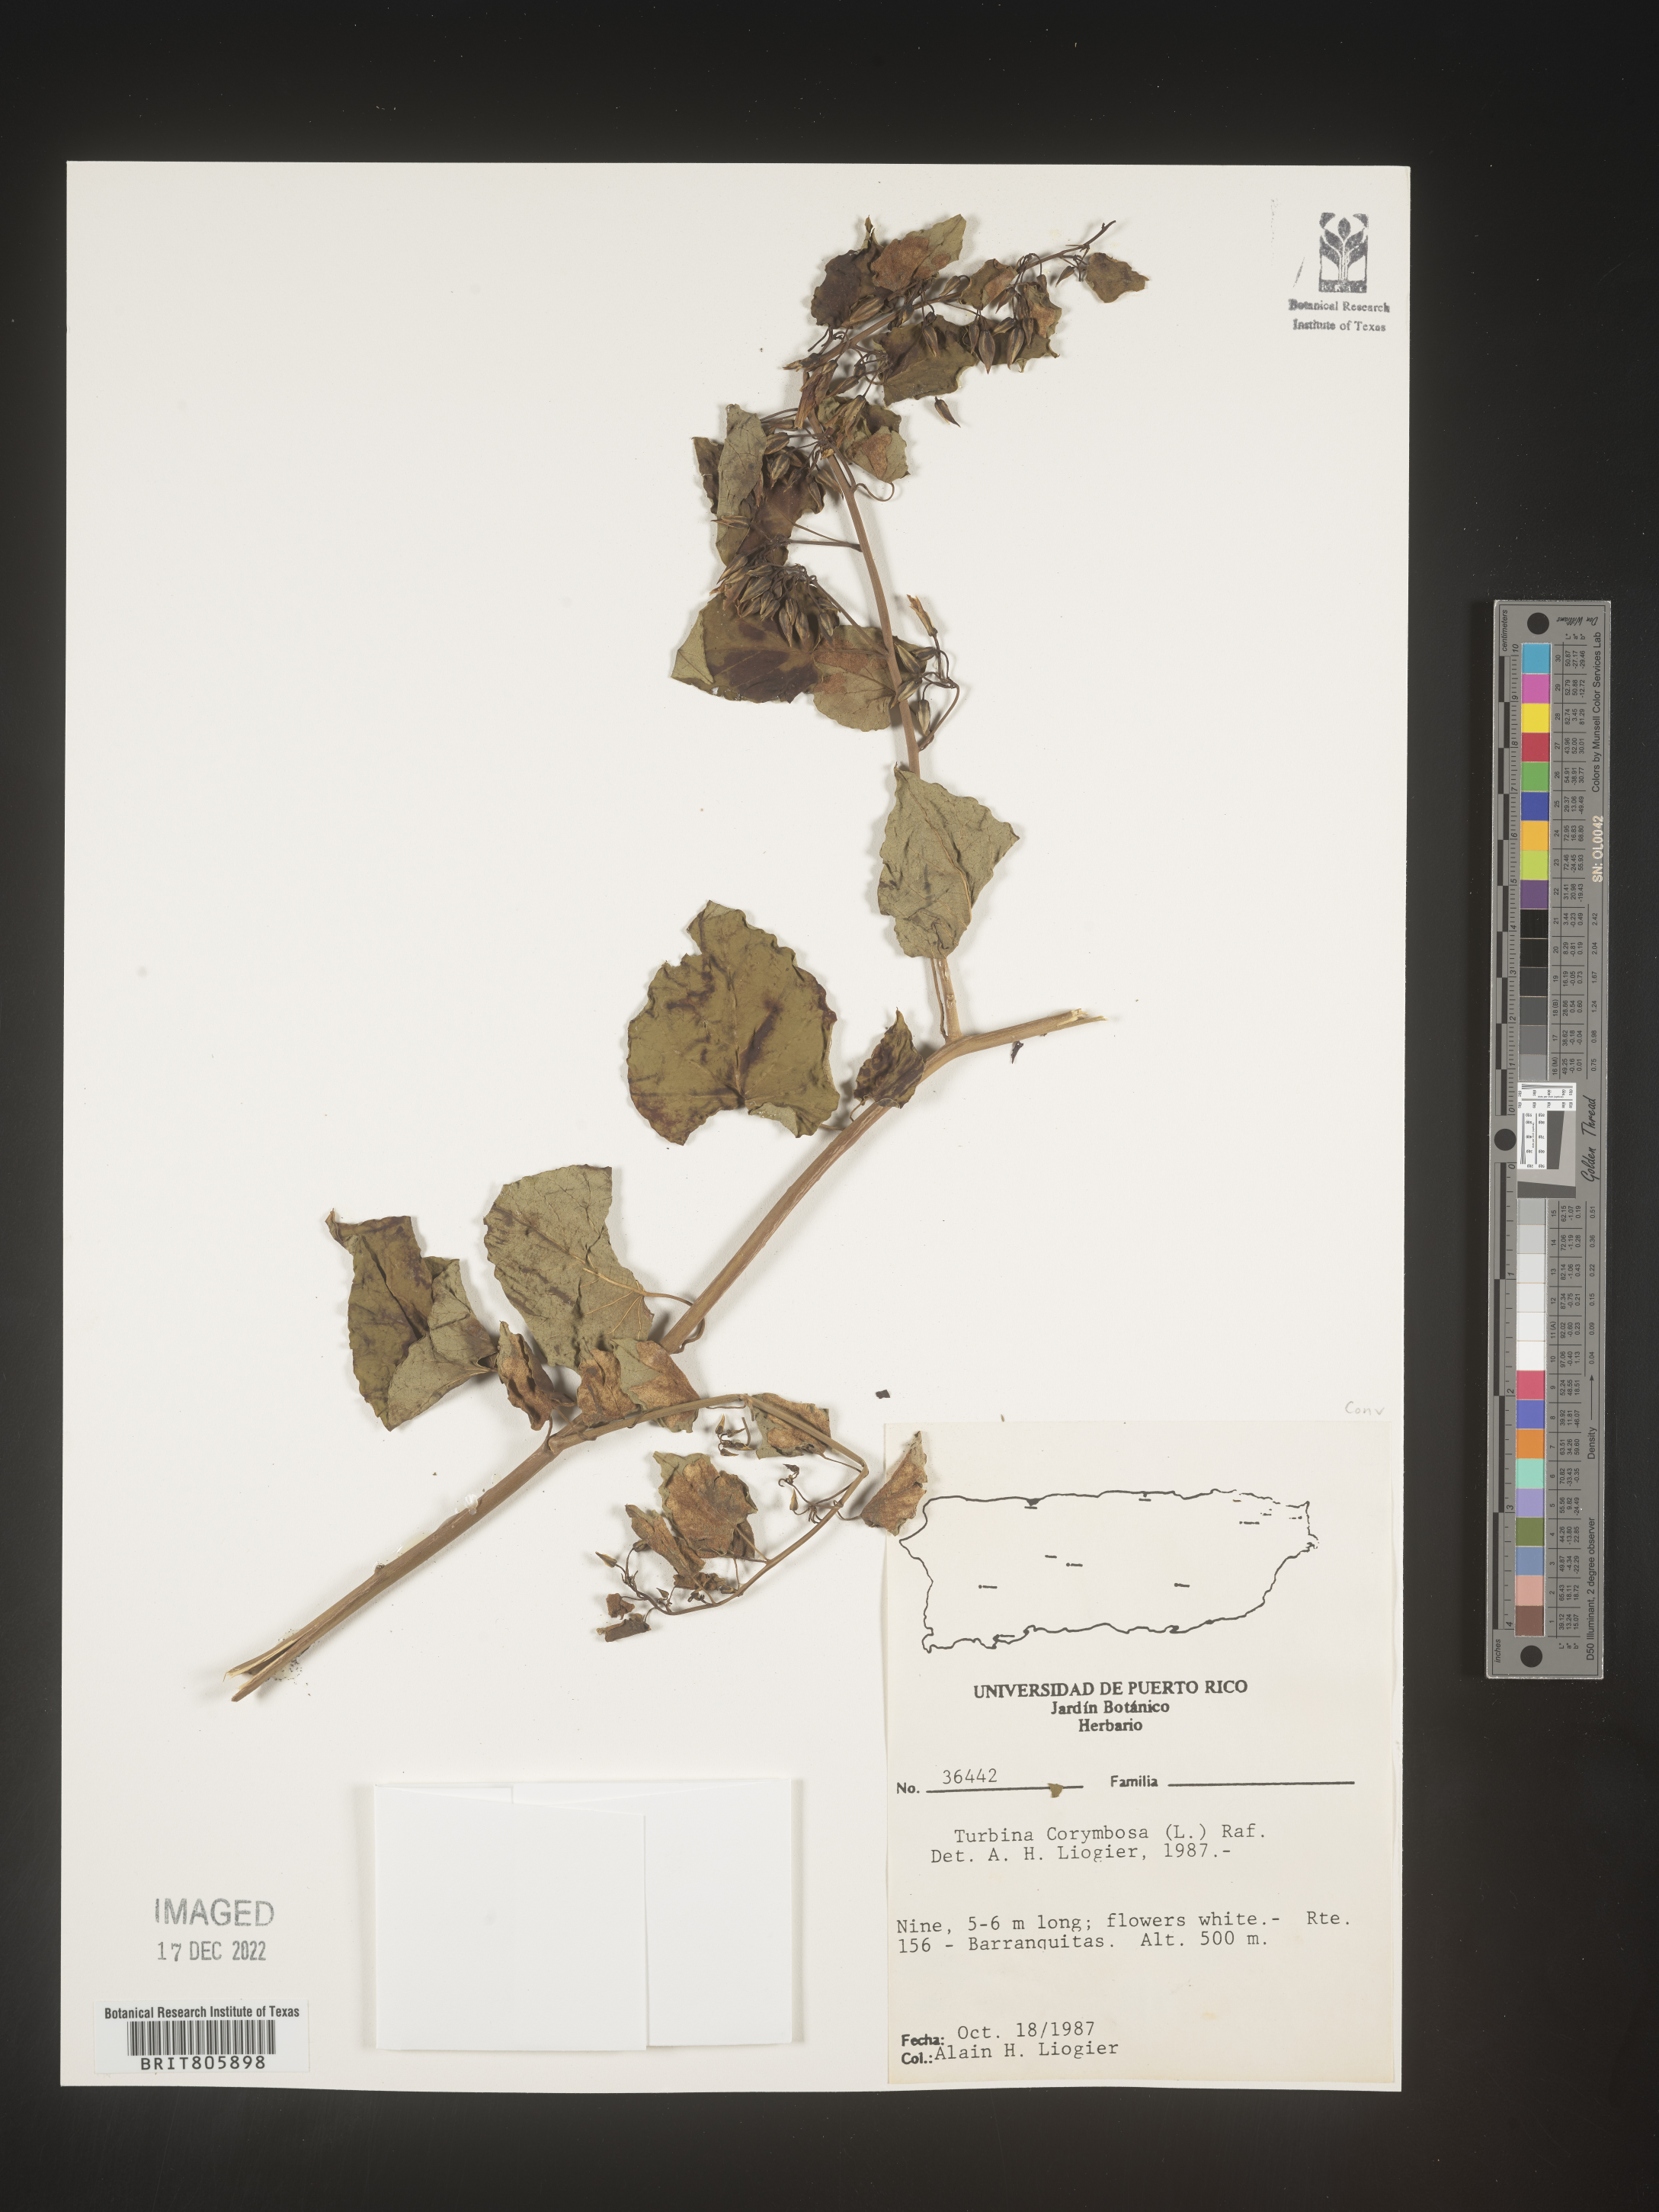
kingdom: Animalia
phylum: Mollusca
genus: Turbina
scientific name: Turbina
